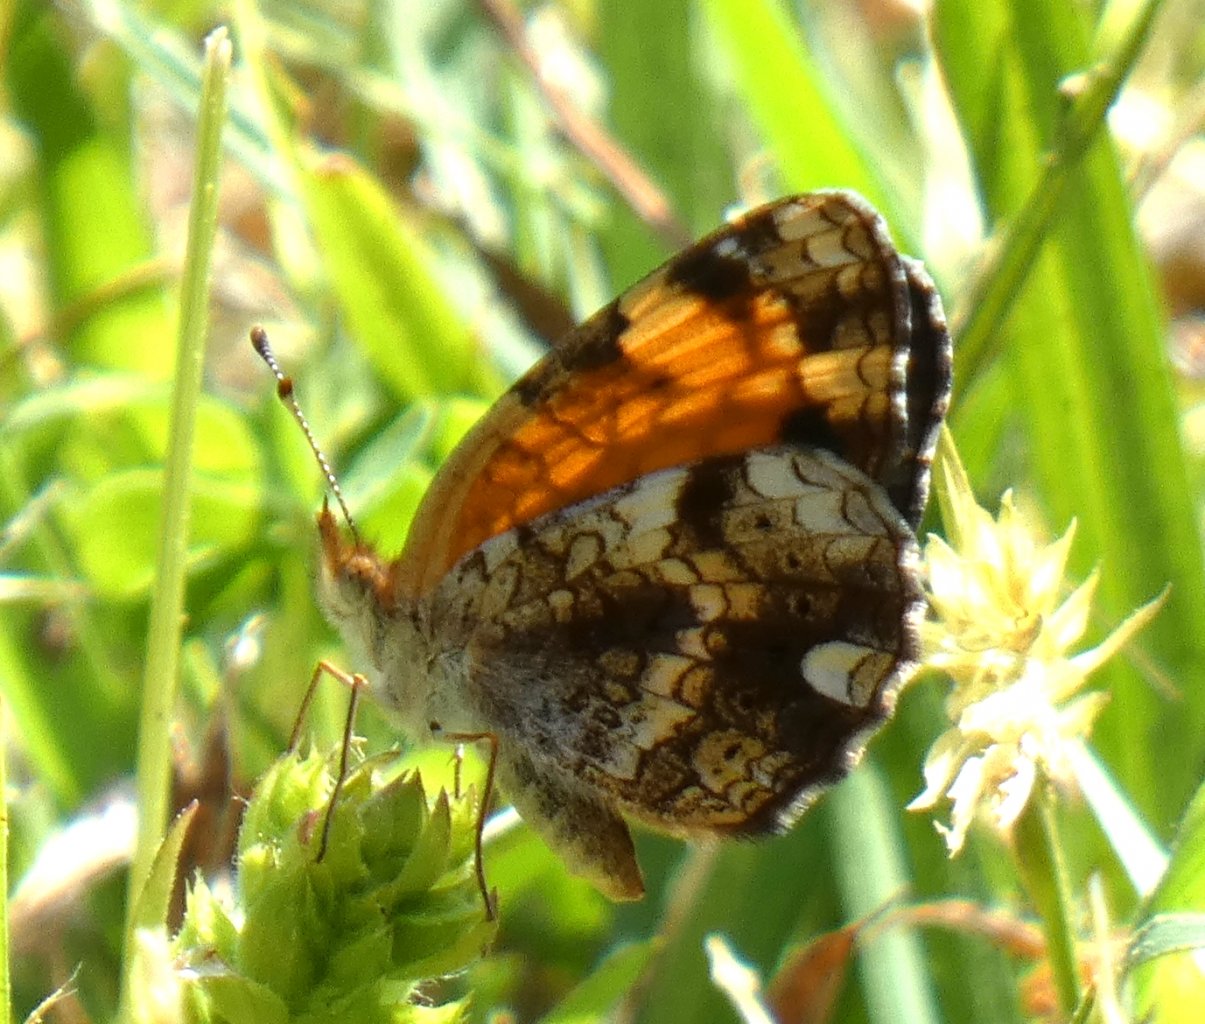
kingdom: Animalia
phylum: Arthropoda
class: Insecta
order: Lepidoptera
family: Nymphalidae
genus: Phyciodes
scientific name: Phyciodes tharos
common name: Pearl Crescent
